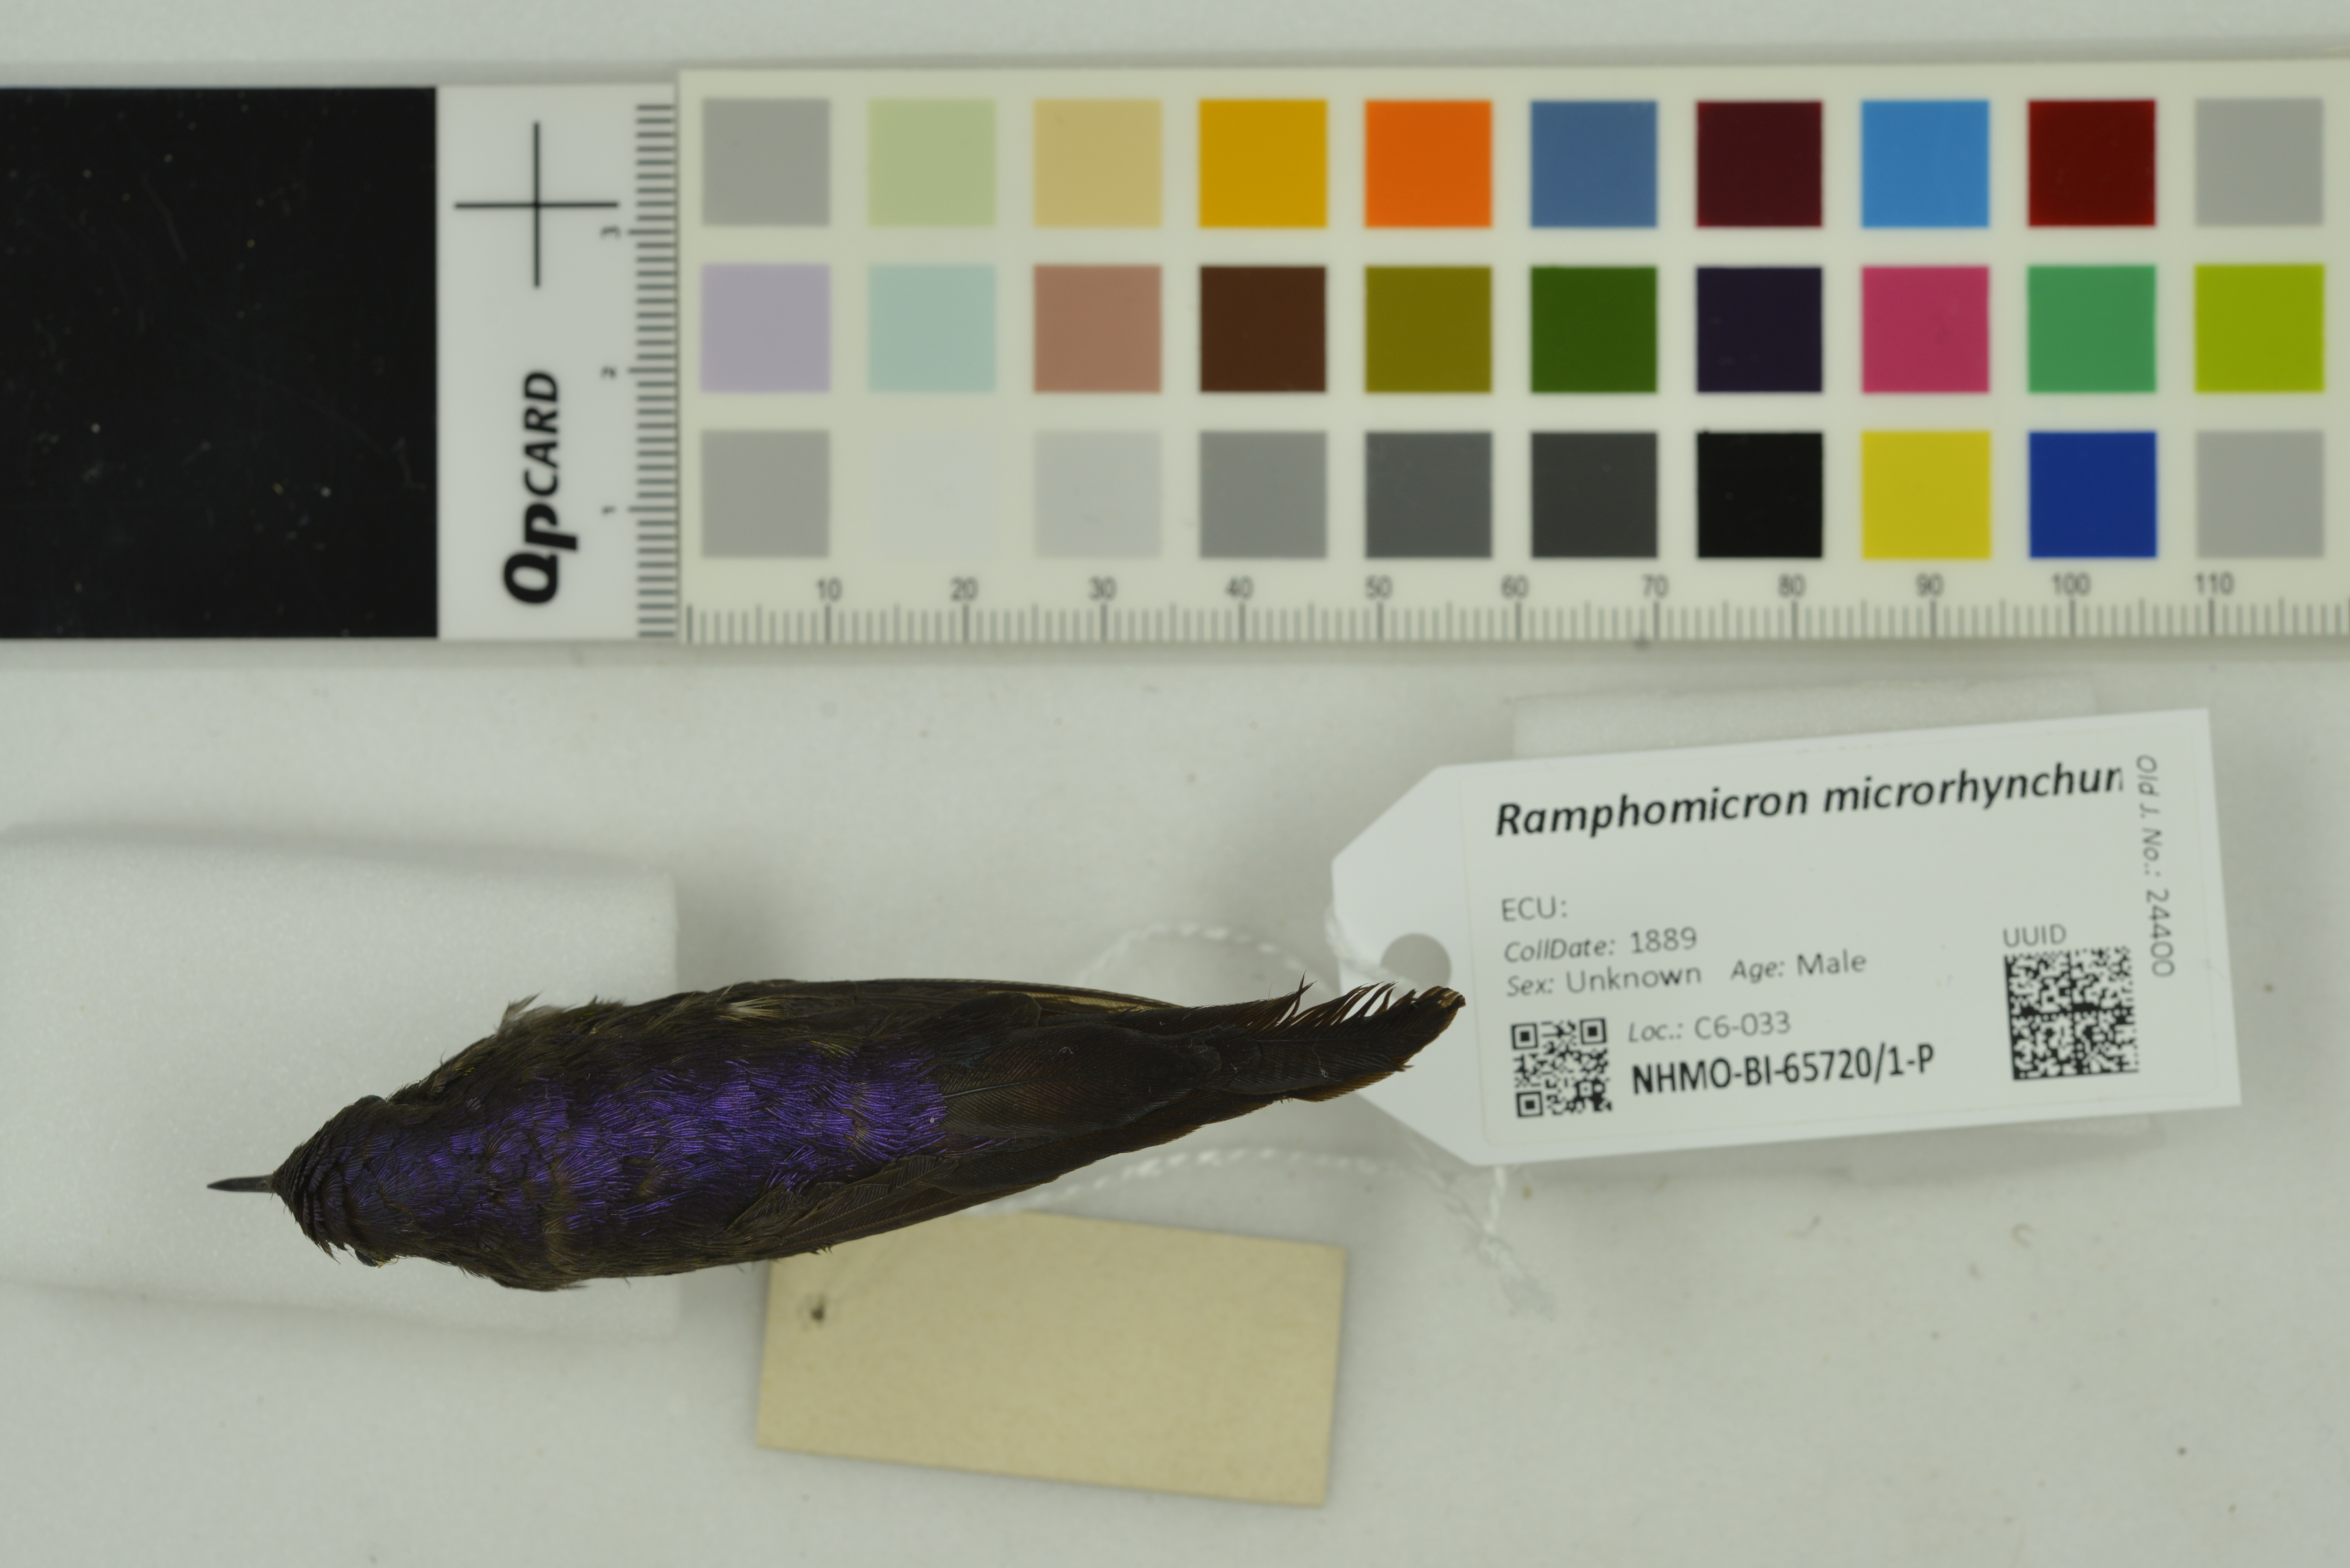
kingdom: Animalia
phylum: Chordata
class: Aves
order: Apodiformes
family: Trochilidae
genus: Ramphomicron
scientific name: Ramphomicron microrhynchum
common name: Purple-backed thornbill
